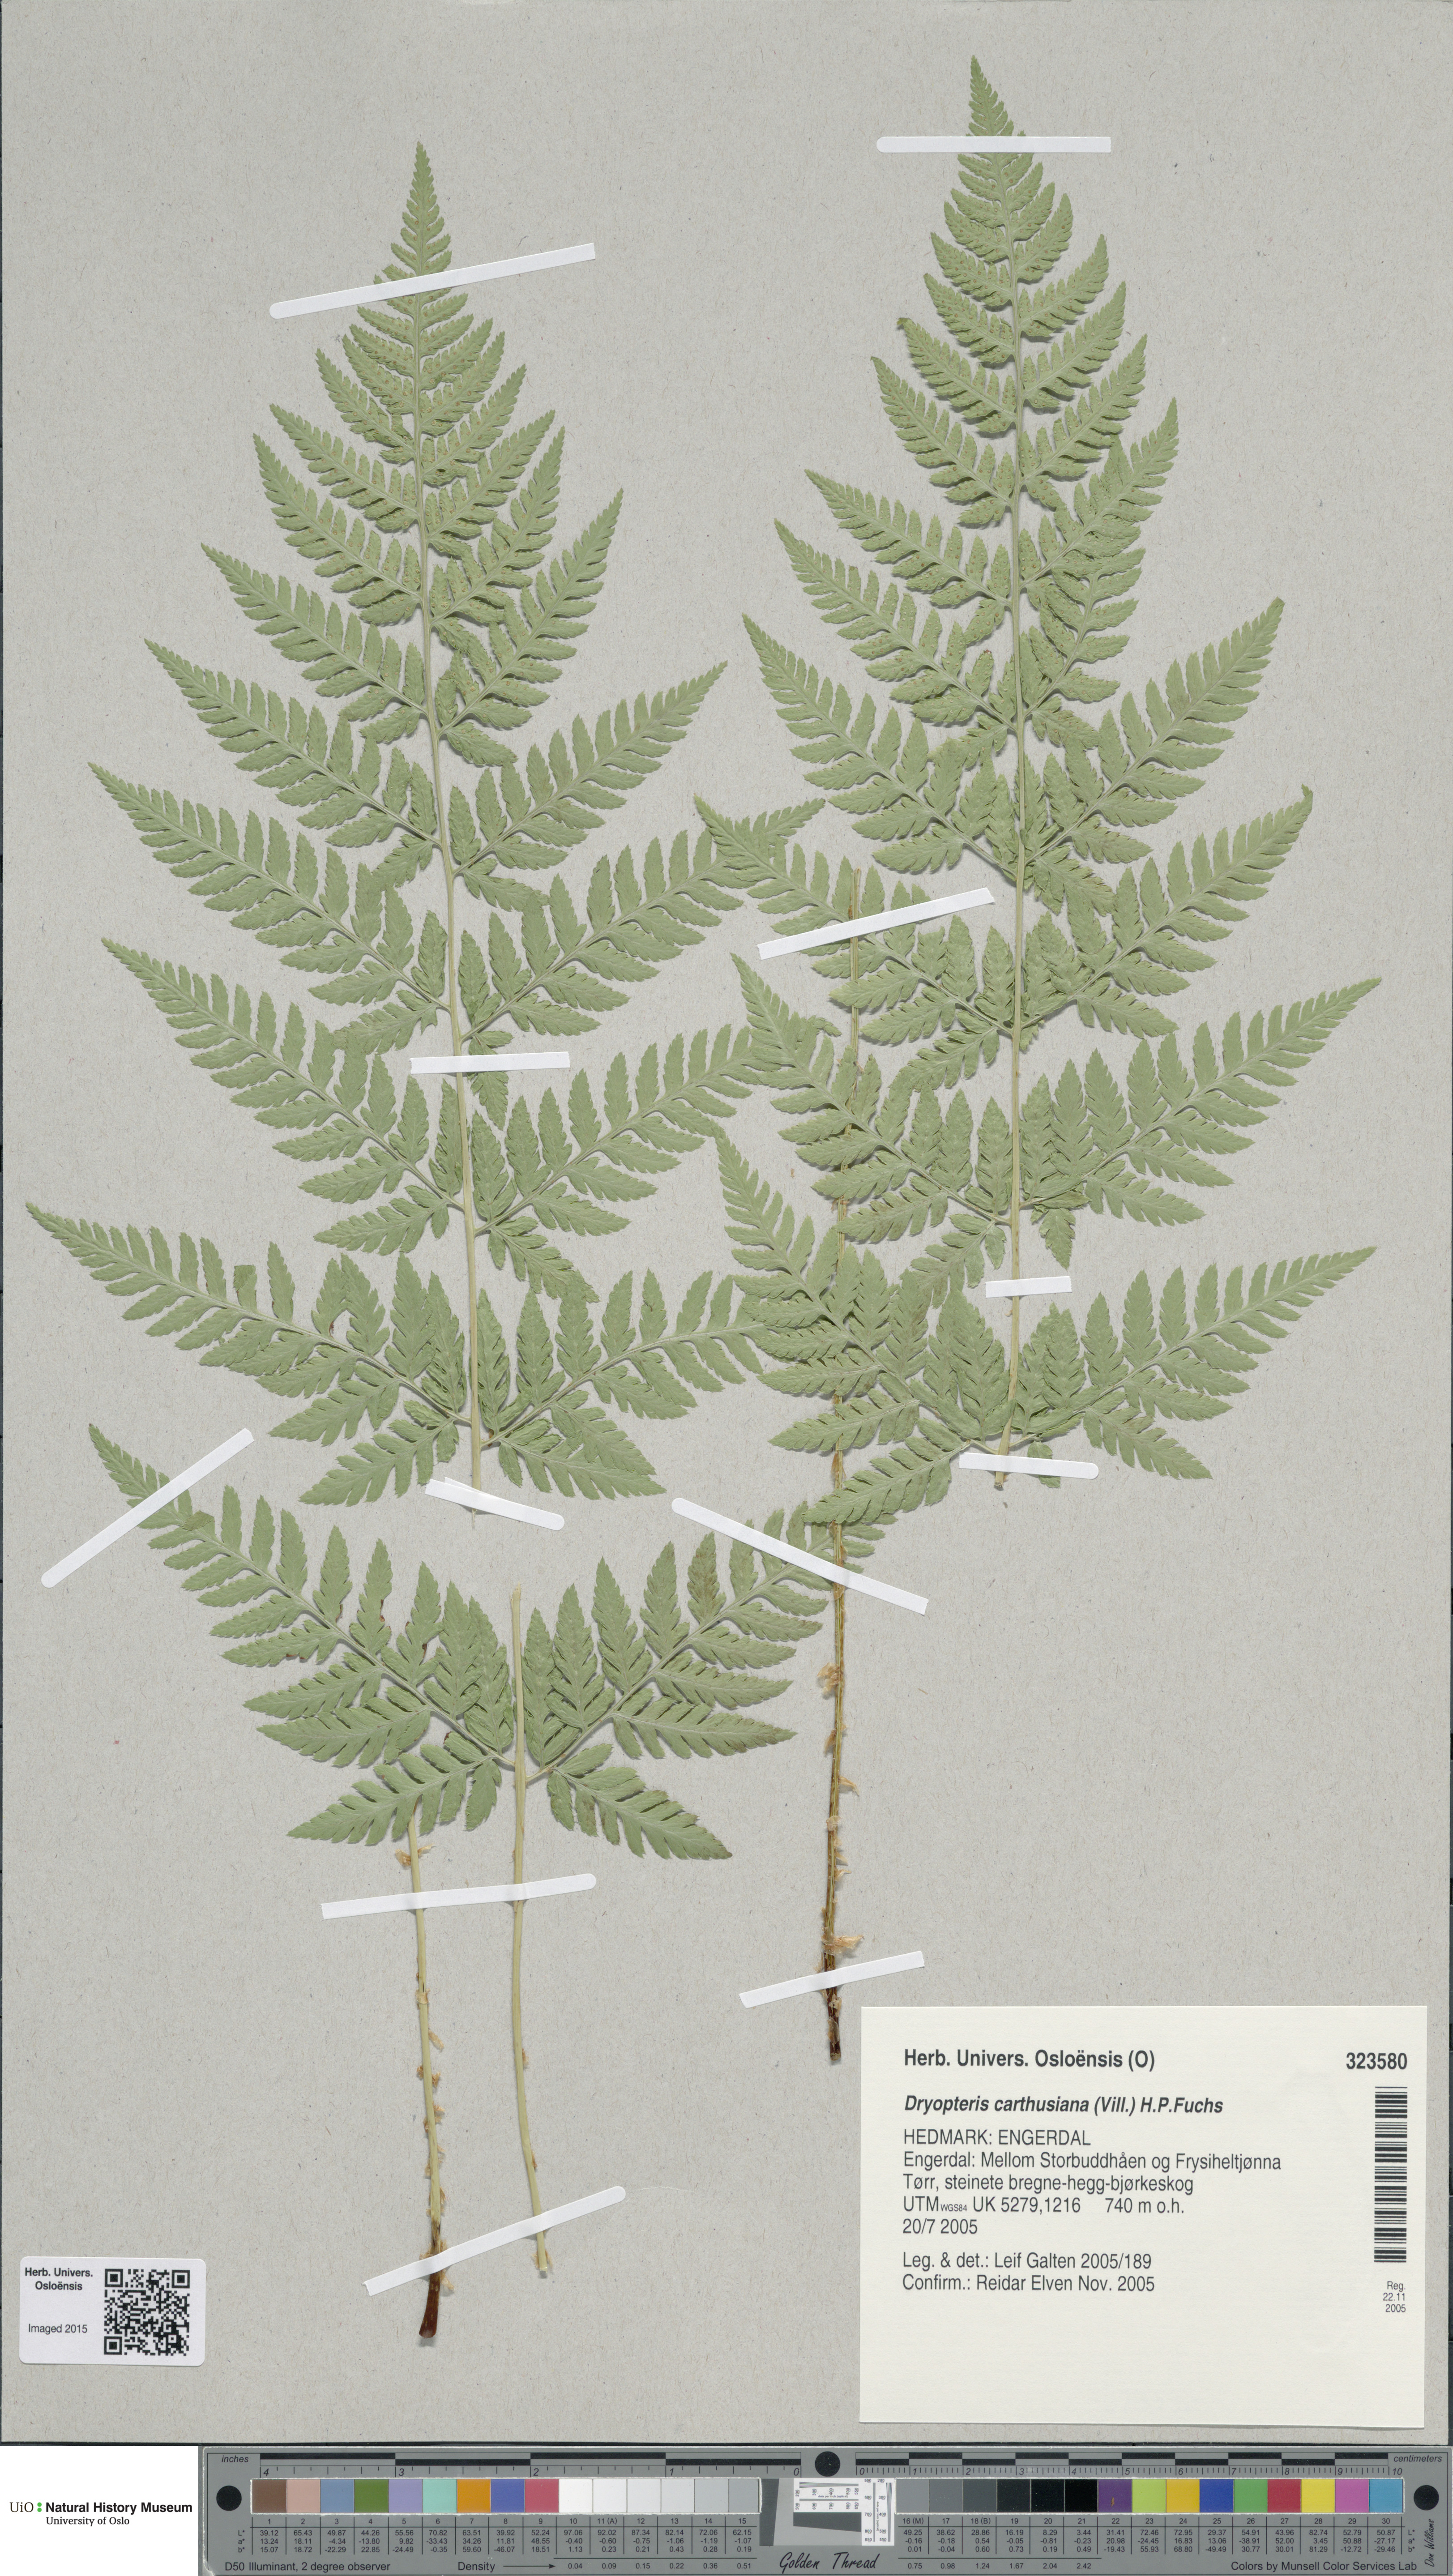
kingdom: Plantae
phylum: Tracheophyta
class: Polypodiopsida
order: Polypodiales
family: Dryopteridaceae
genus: Dryopteris
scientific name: Dryopteris carthusiana
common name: Narrow buckler-fern
